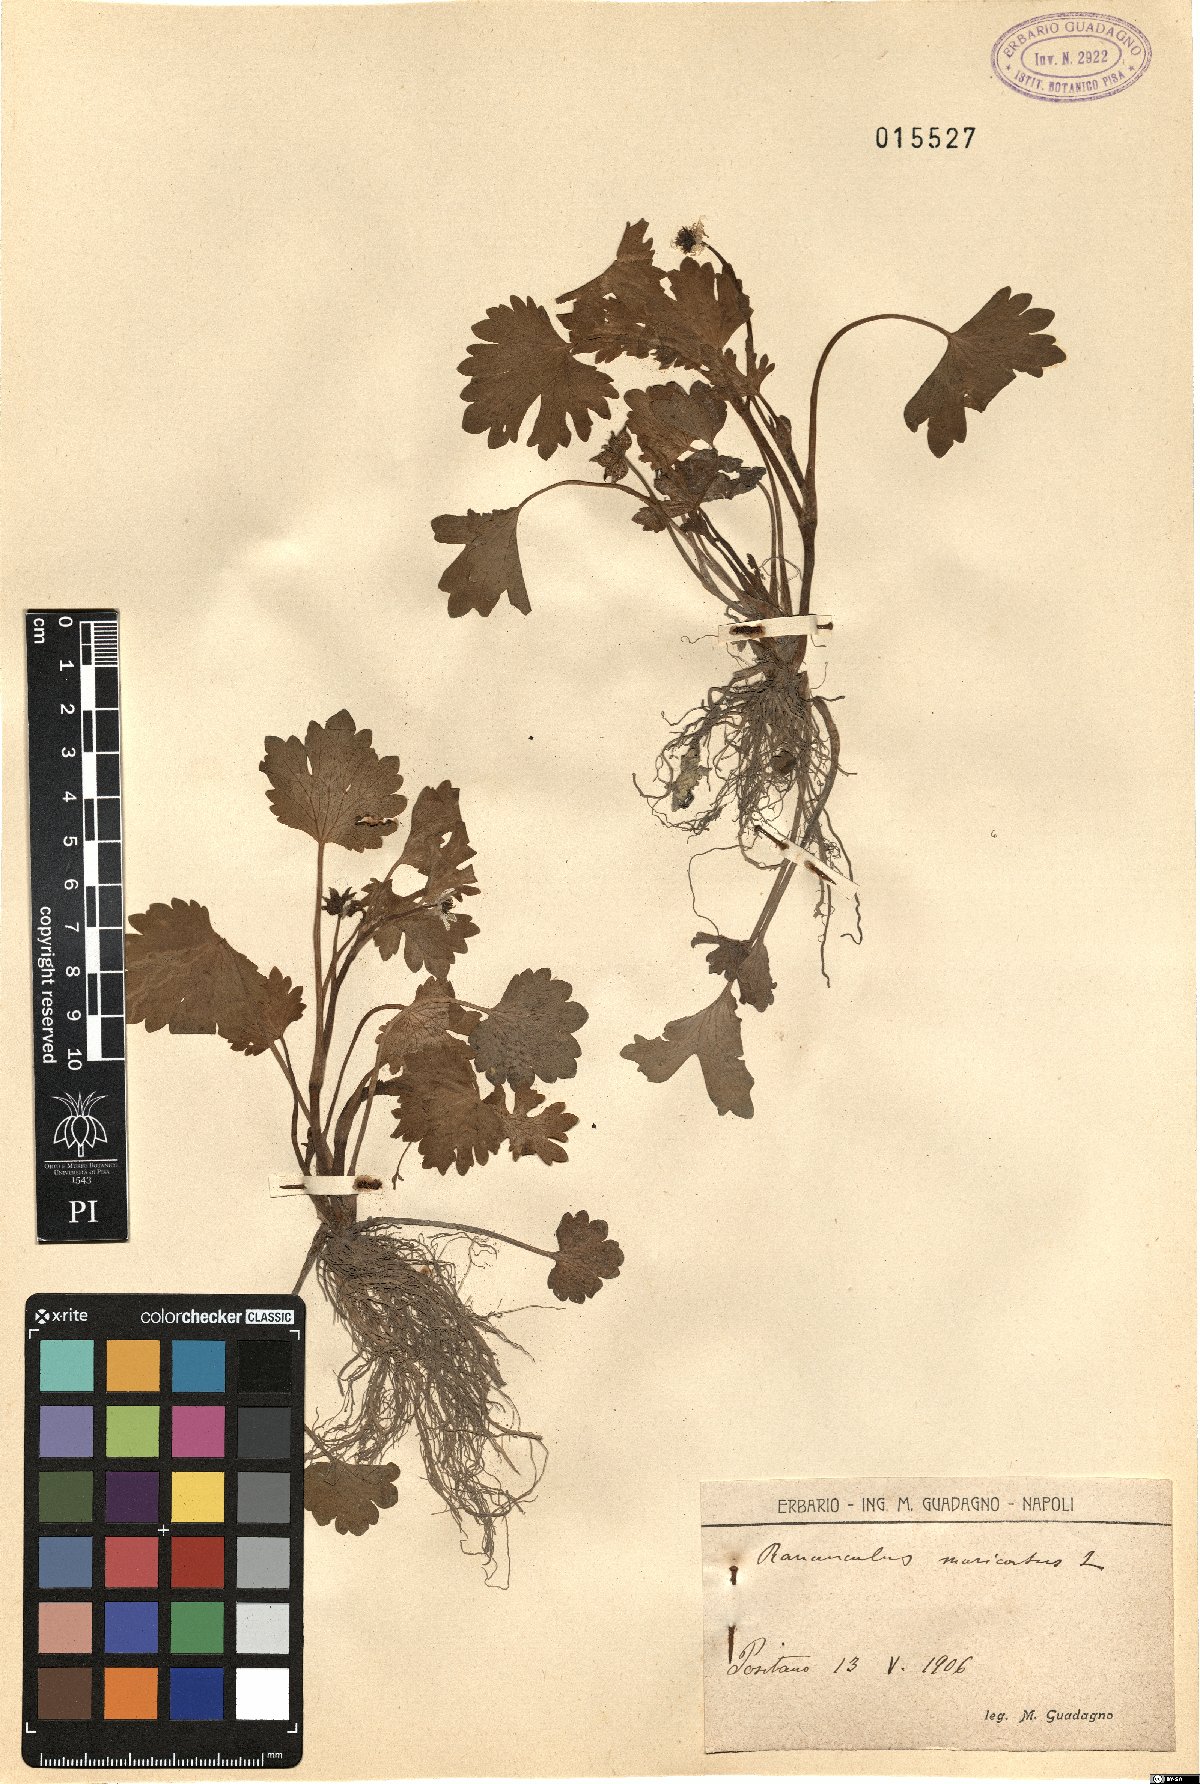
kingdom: Plantae
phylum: Tracheophyta
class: Magnoliopsida
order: Ranunculales
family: Ranunculaceae
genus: Ranunculus
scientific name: Ranunculus muricatus
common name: Rough-fruited buttercup
